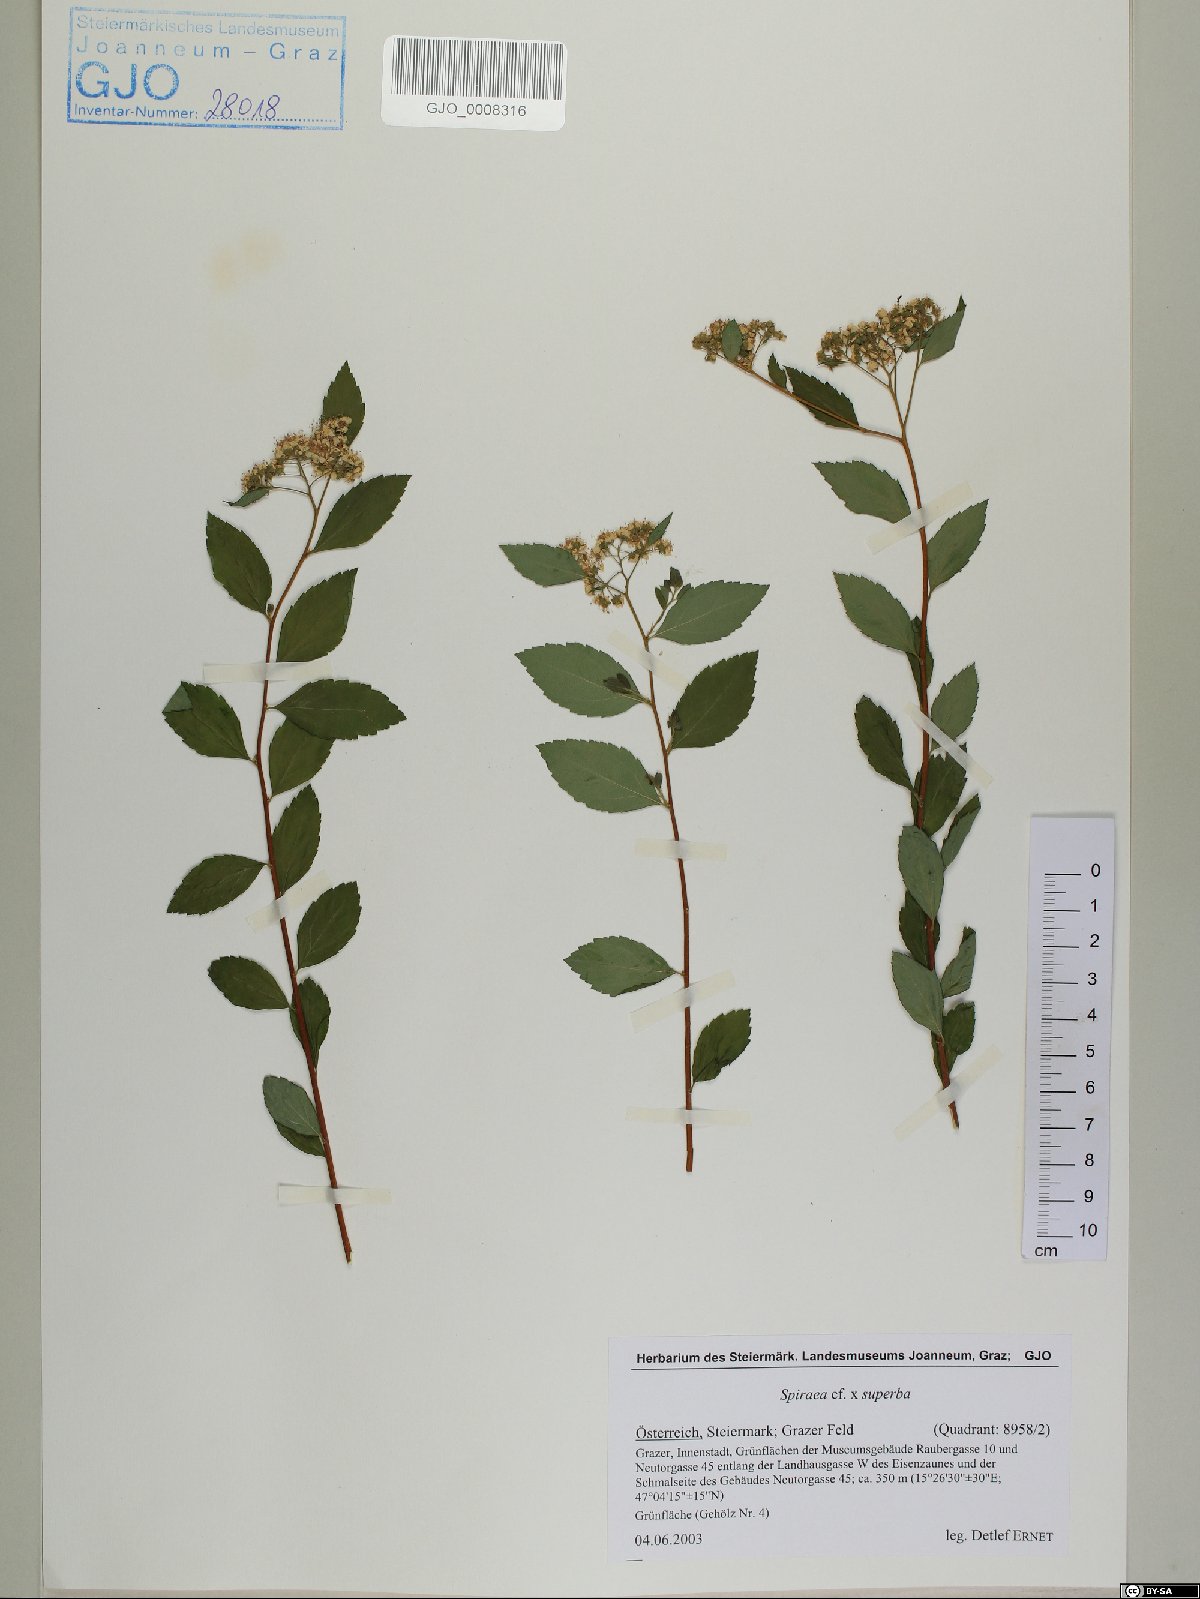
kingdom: Plantae
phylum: Tracheophyta
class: Magnoliopsida
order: Rosales
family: Rosaceae
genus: Spiraea
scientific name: Spiraea superba
